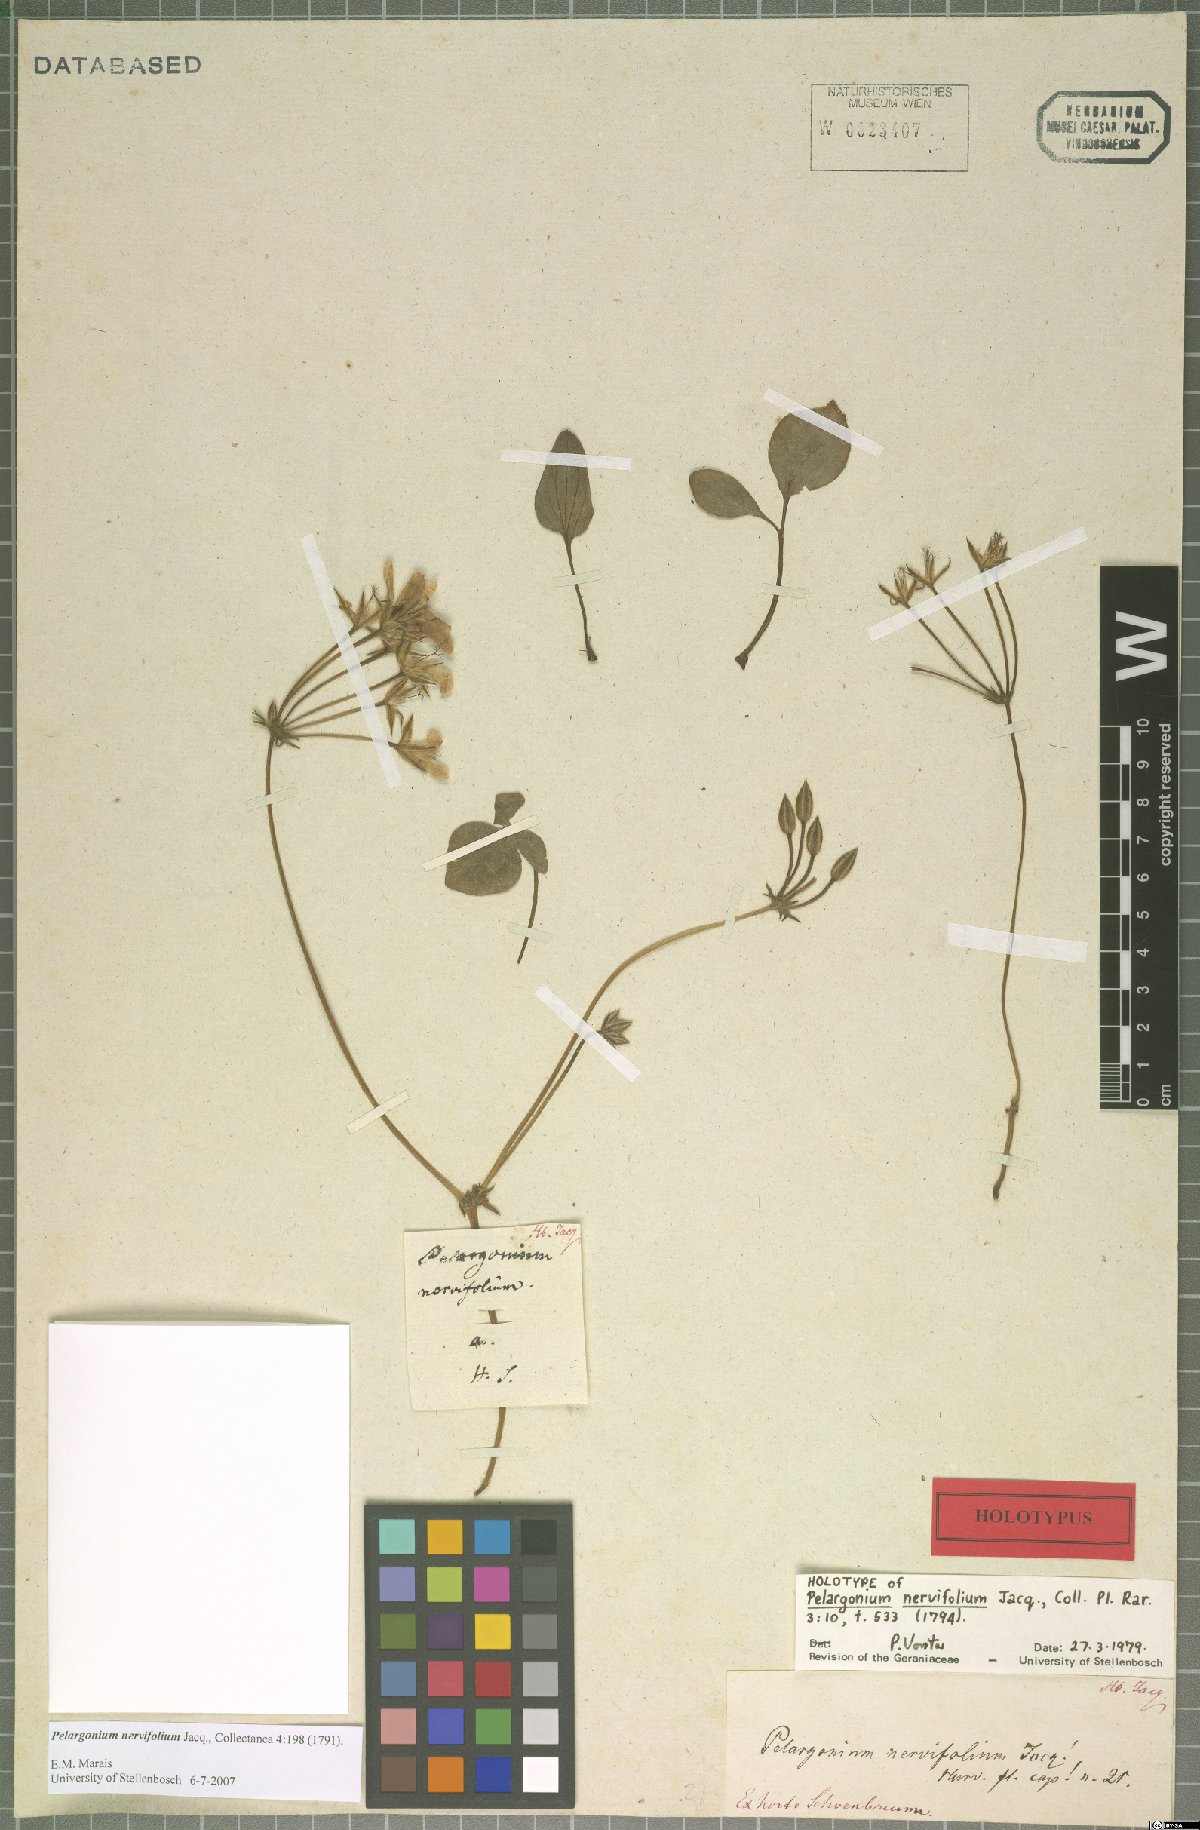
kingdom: Plantae
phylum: Tracheophyta
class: Magnoliopsida
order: Geraniales
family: Geraniaceae
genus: Pelargonium
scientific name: Pelargonium nervifolium
